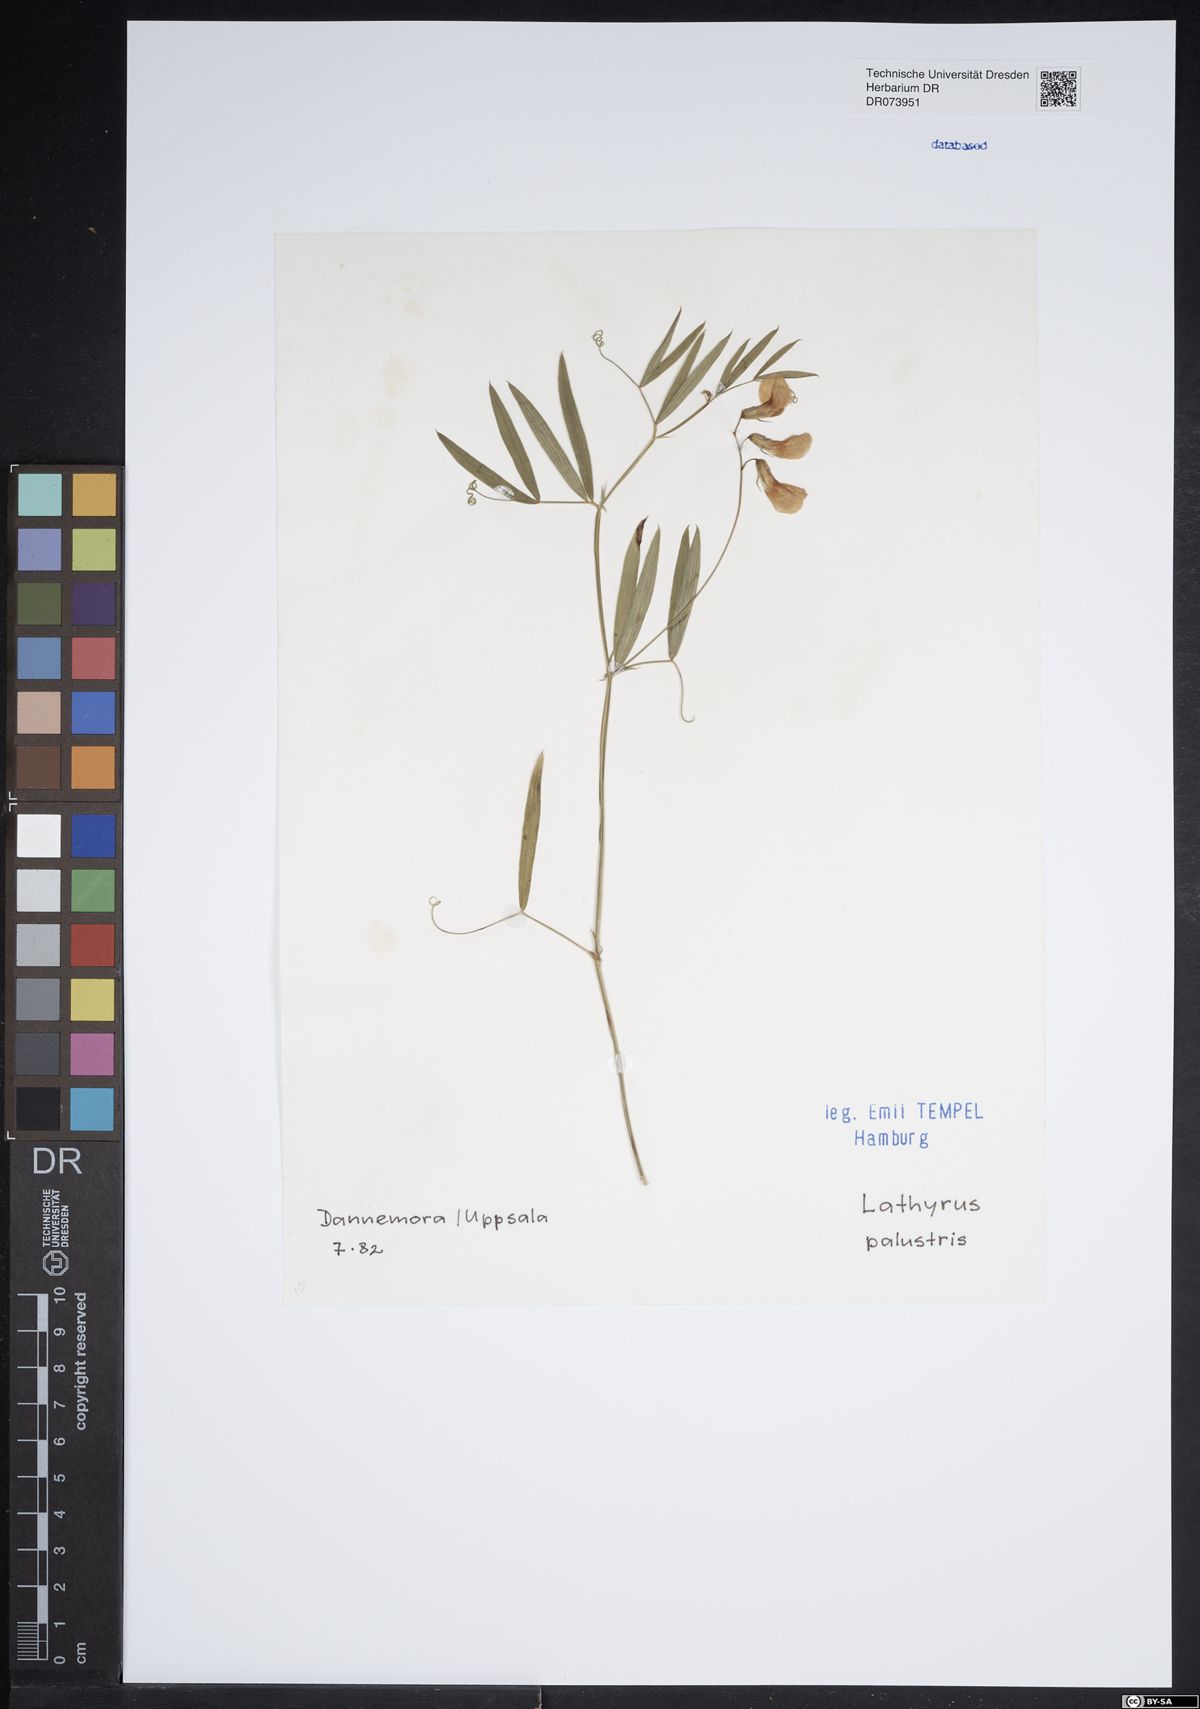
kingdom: Plantae
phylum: Tracheophyta
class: Magnoliopsida
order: Fabales
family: Fabaceae
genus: Lathyrus
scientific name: Lathyrus palustris
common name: Marsh pea
